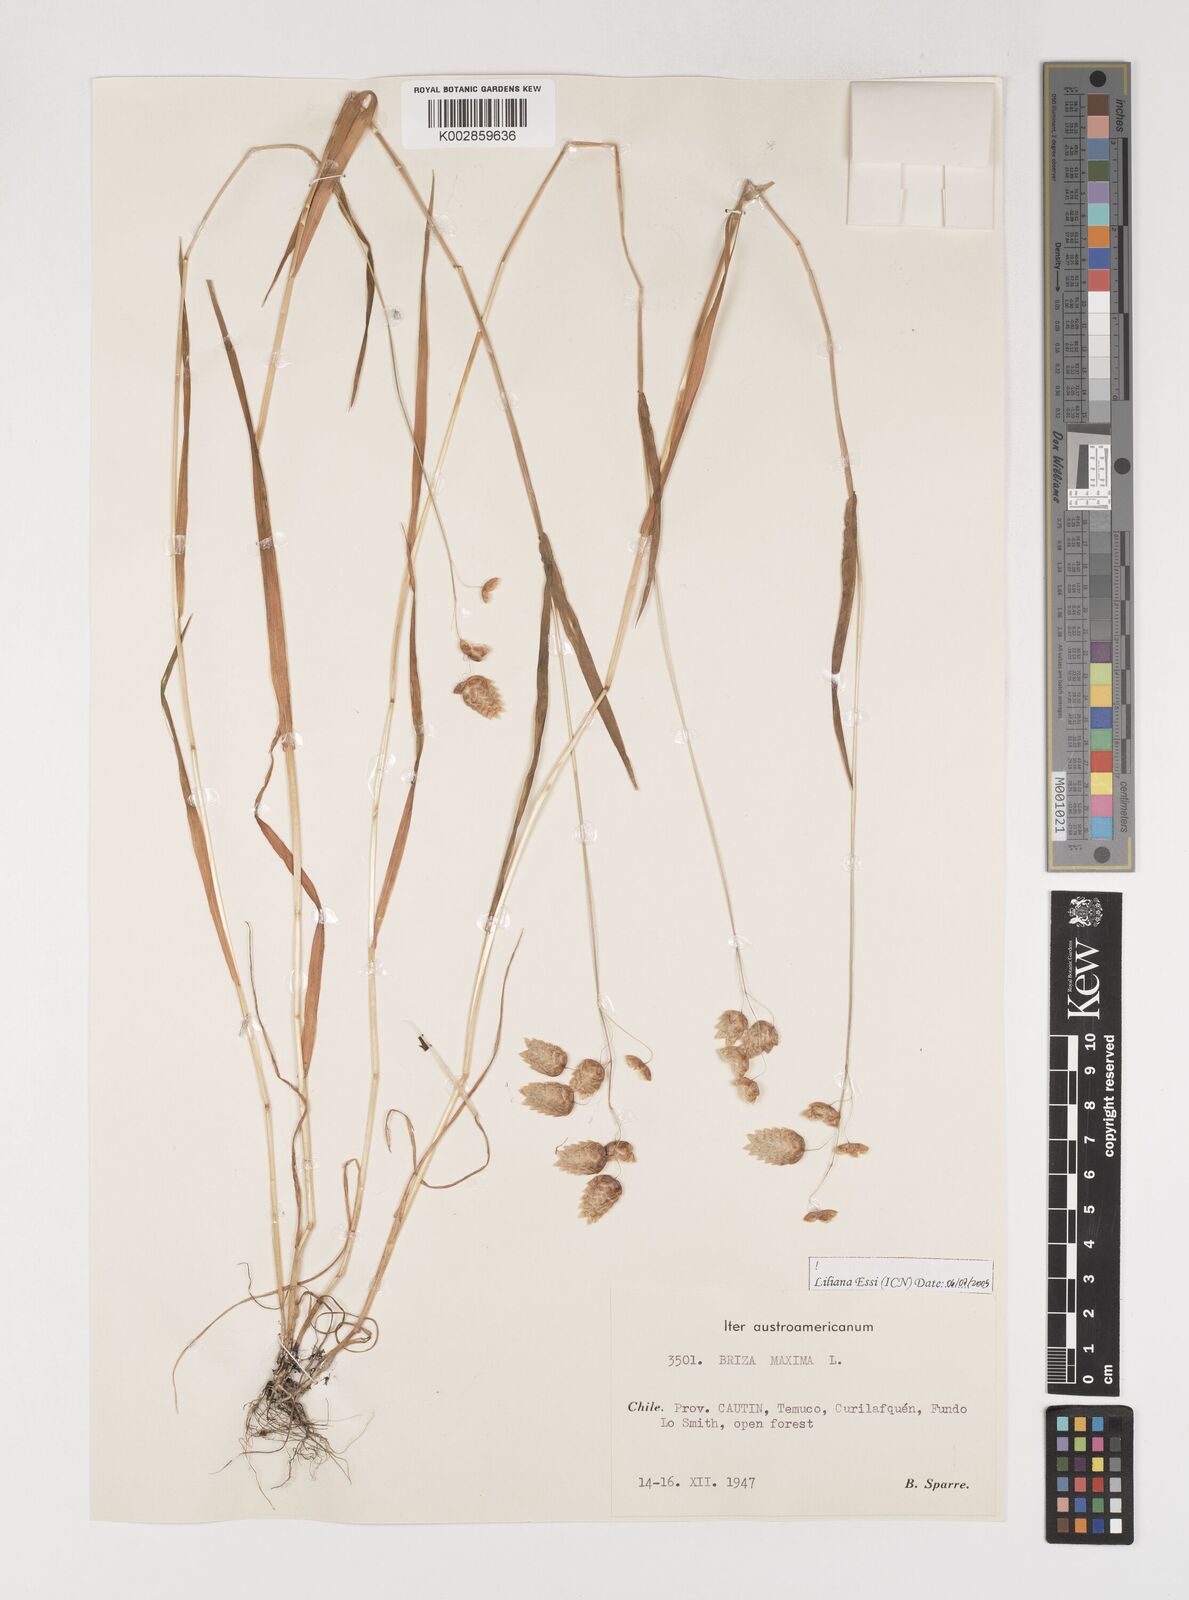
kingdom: Plantae
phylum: Tracheophyta
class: Liliopsida
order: Poales
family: Poaceae
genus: Briza
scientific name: Briza maxima
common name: Big quakinggrass
